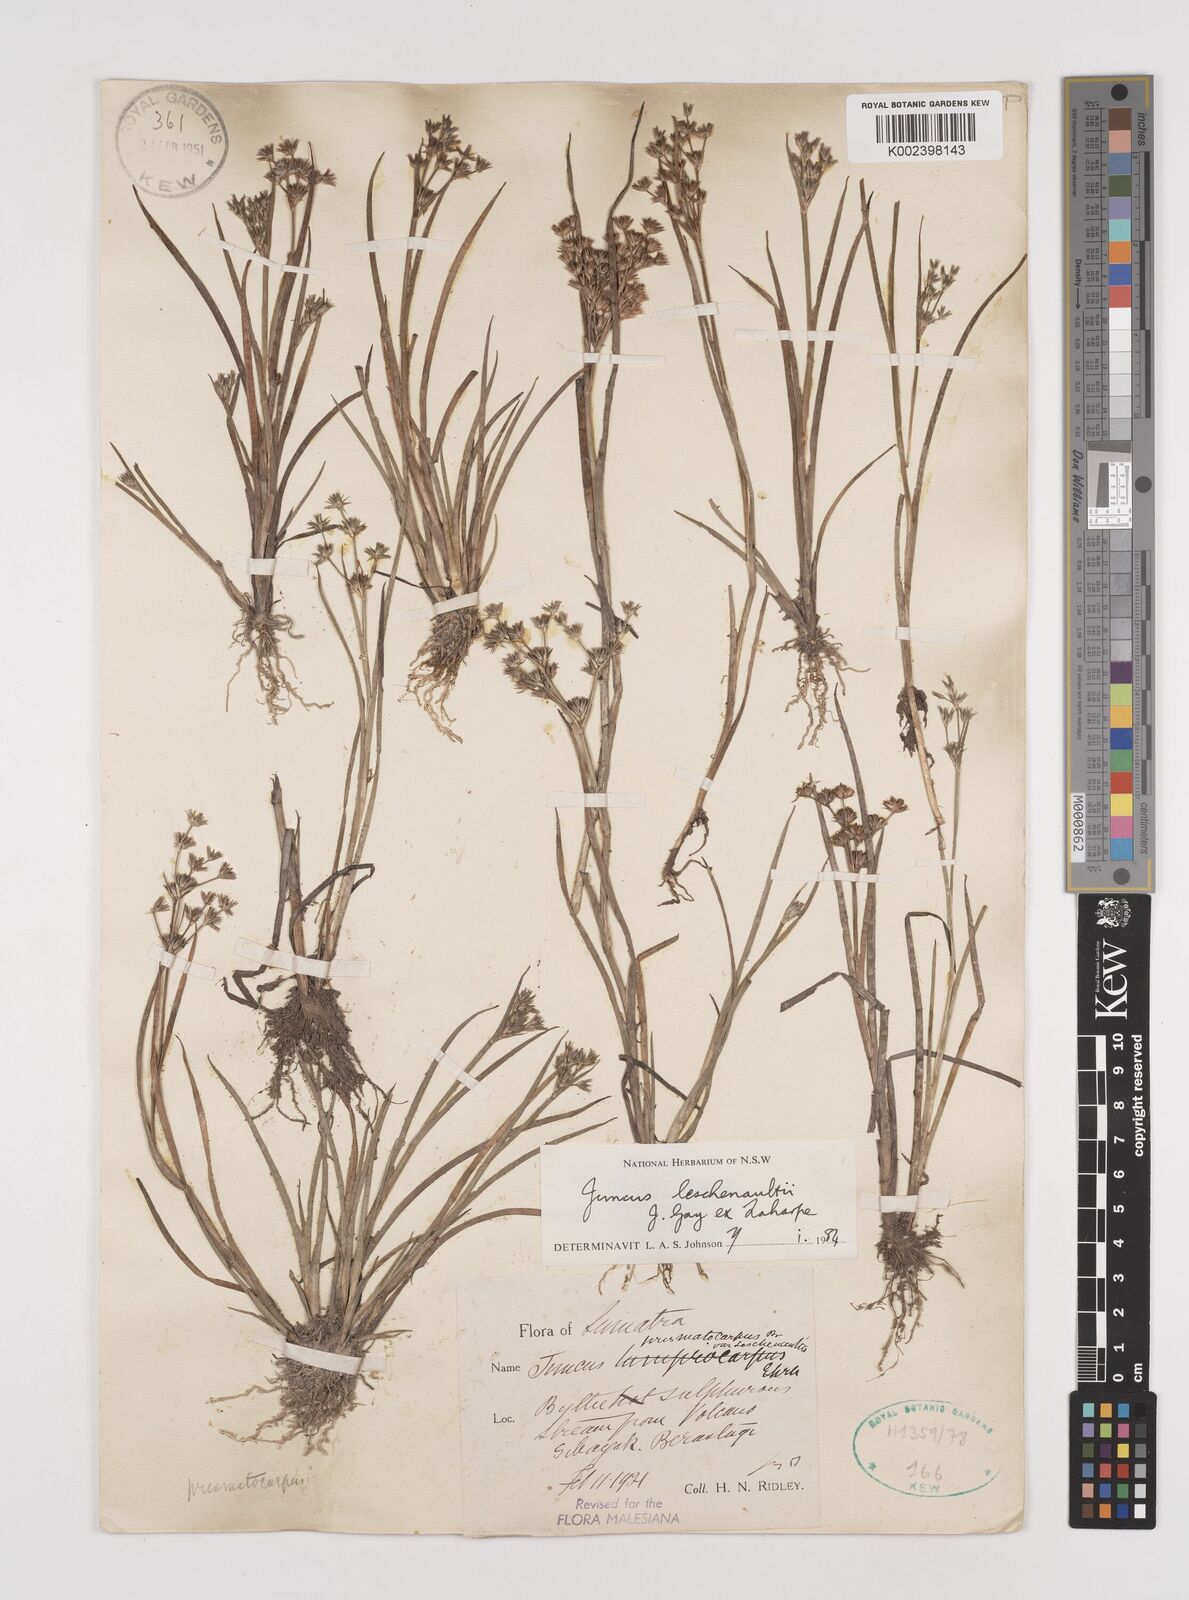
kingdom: Plantae
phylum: Tracheophyta
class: Liliopsida
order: Poales
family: Juncaceae
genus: Juncus
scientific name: Juncus prismatocarpus
